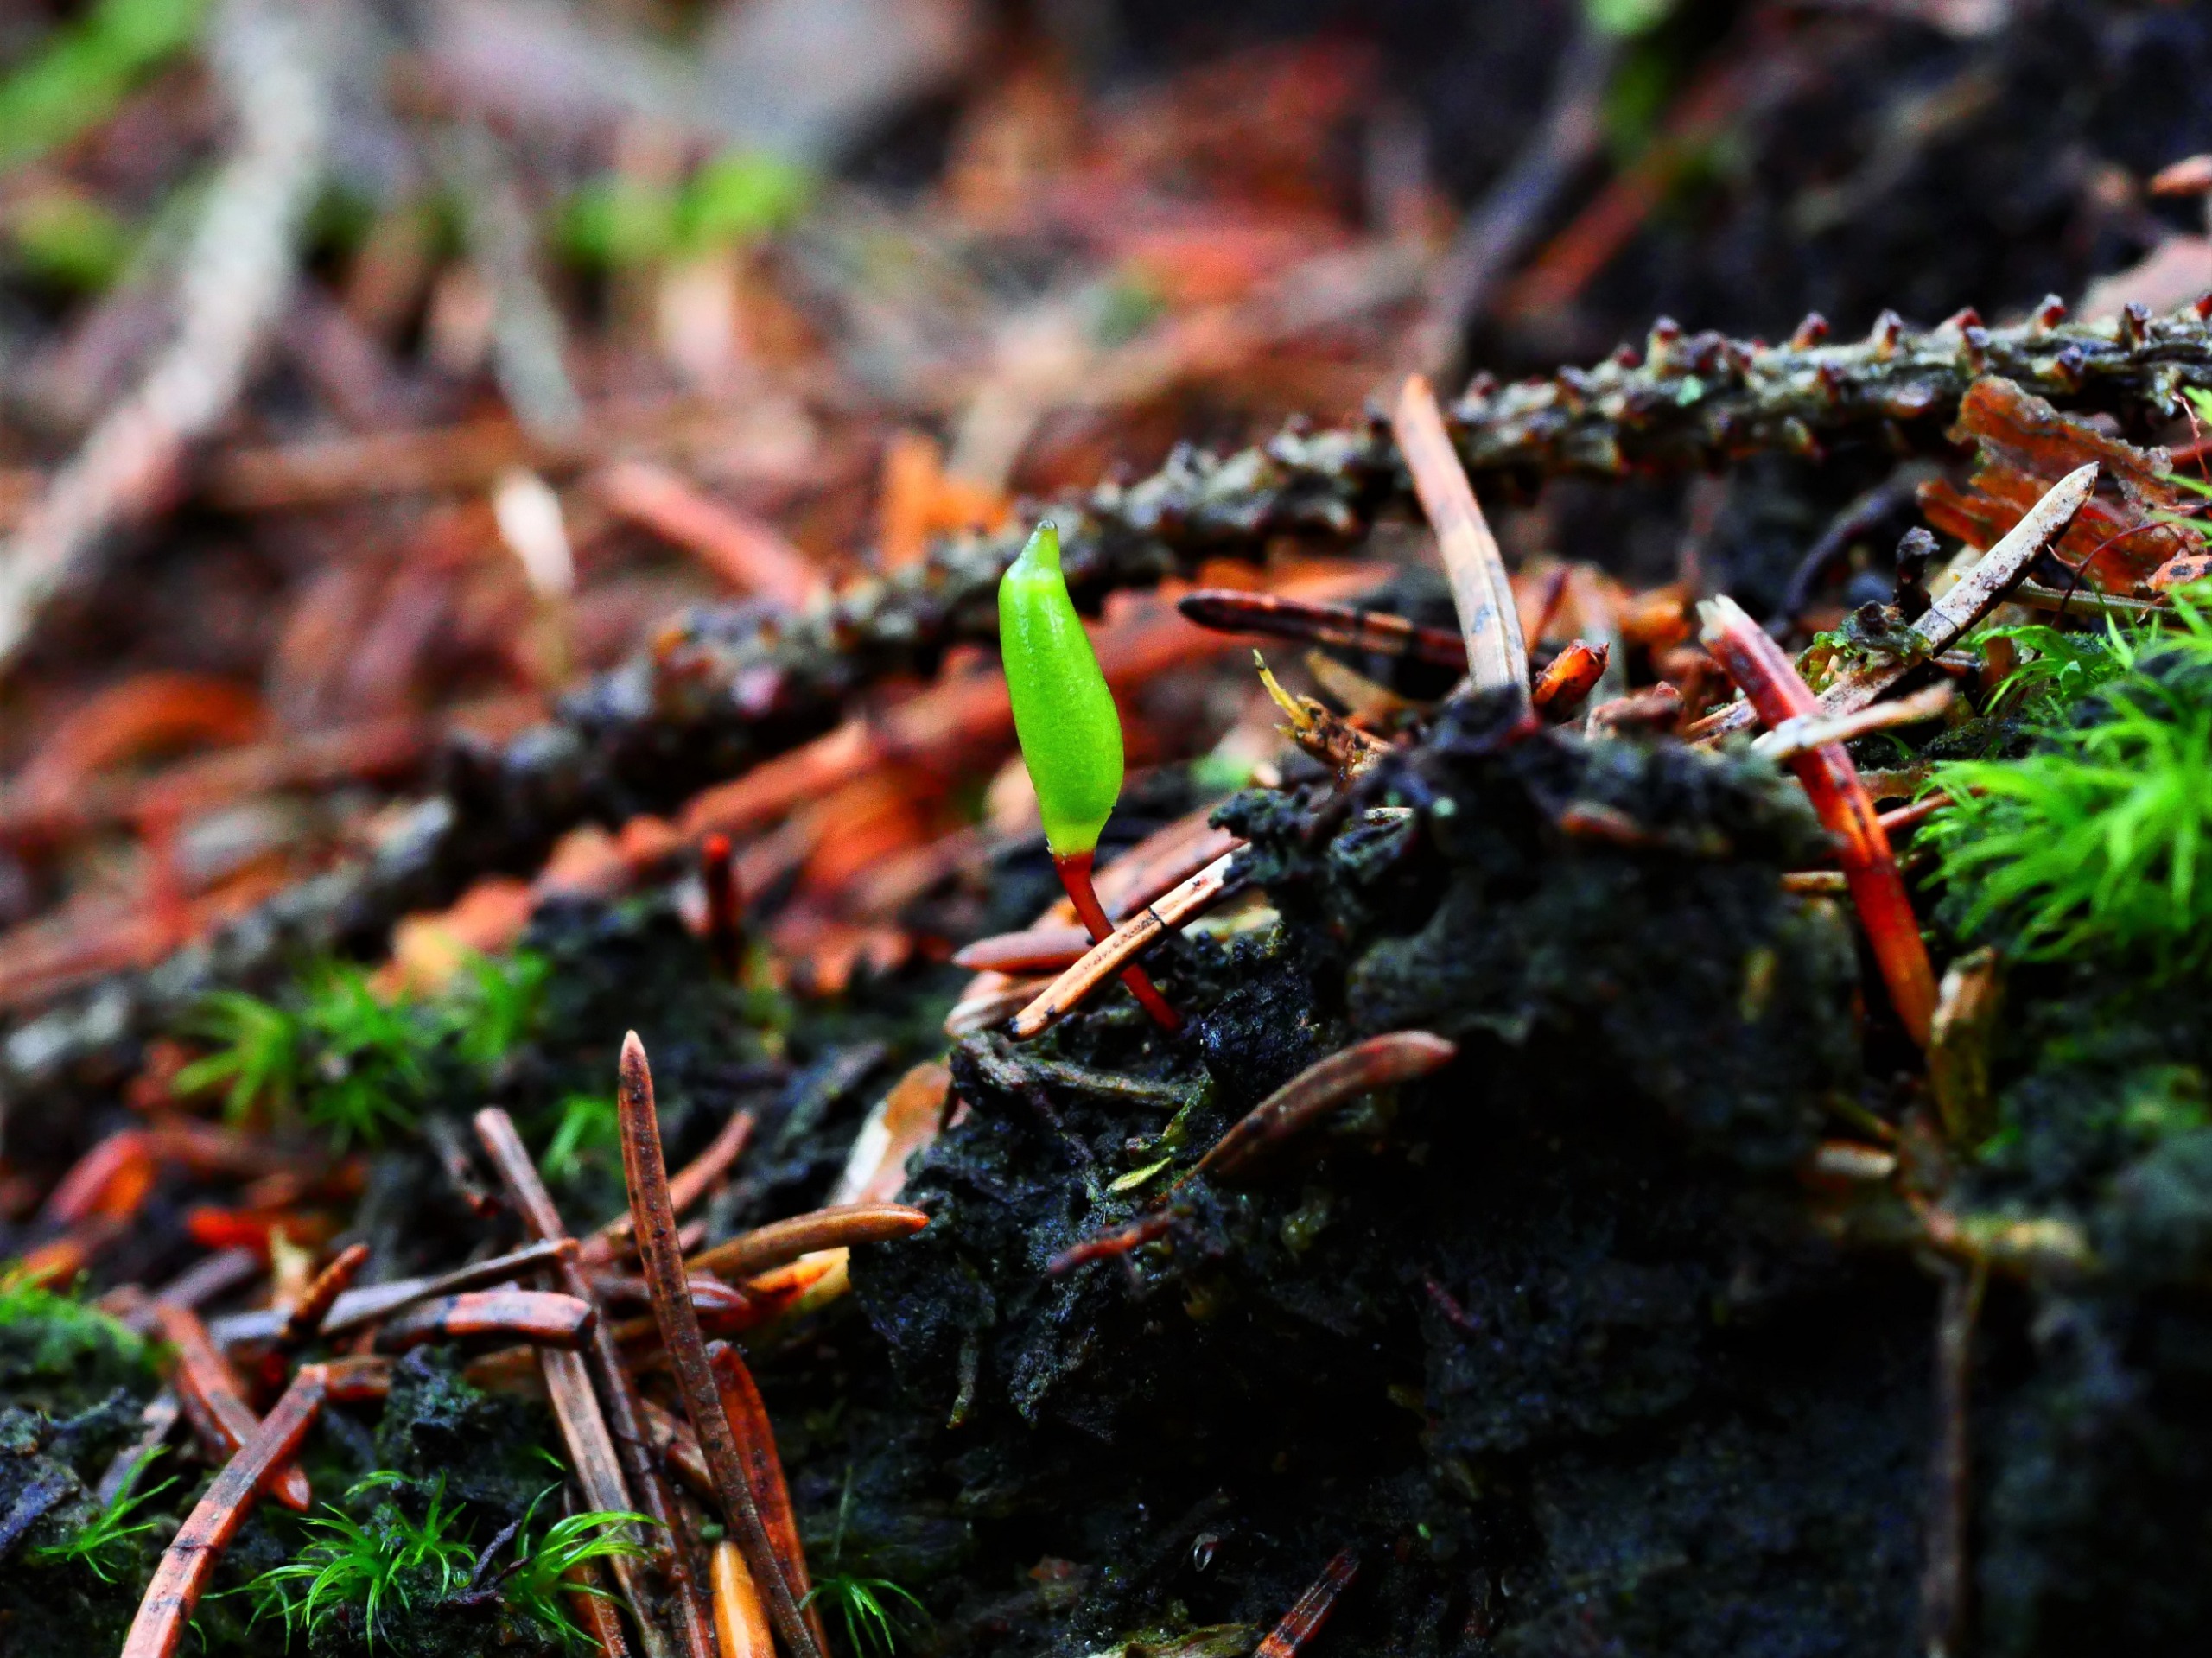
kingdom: Plantae
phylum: Bryophyta
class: Bryopsida
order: Buxbaumiales
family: Buxbaumiaceae
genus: Buxbaumia
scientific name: Buxbaumia viridis
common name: Grøn buxbaumia
